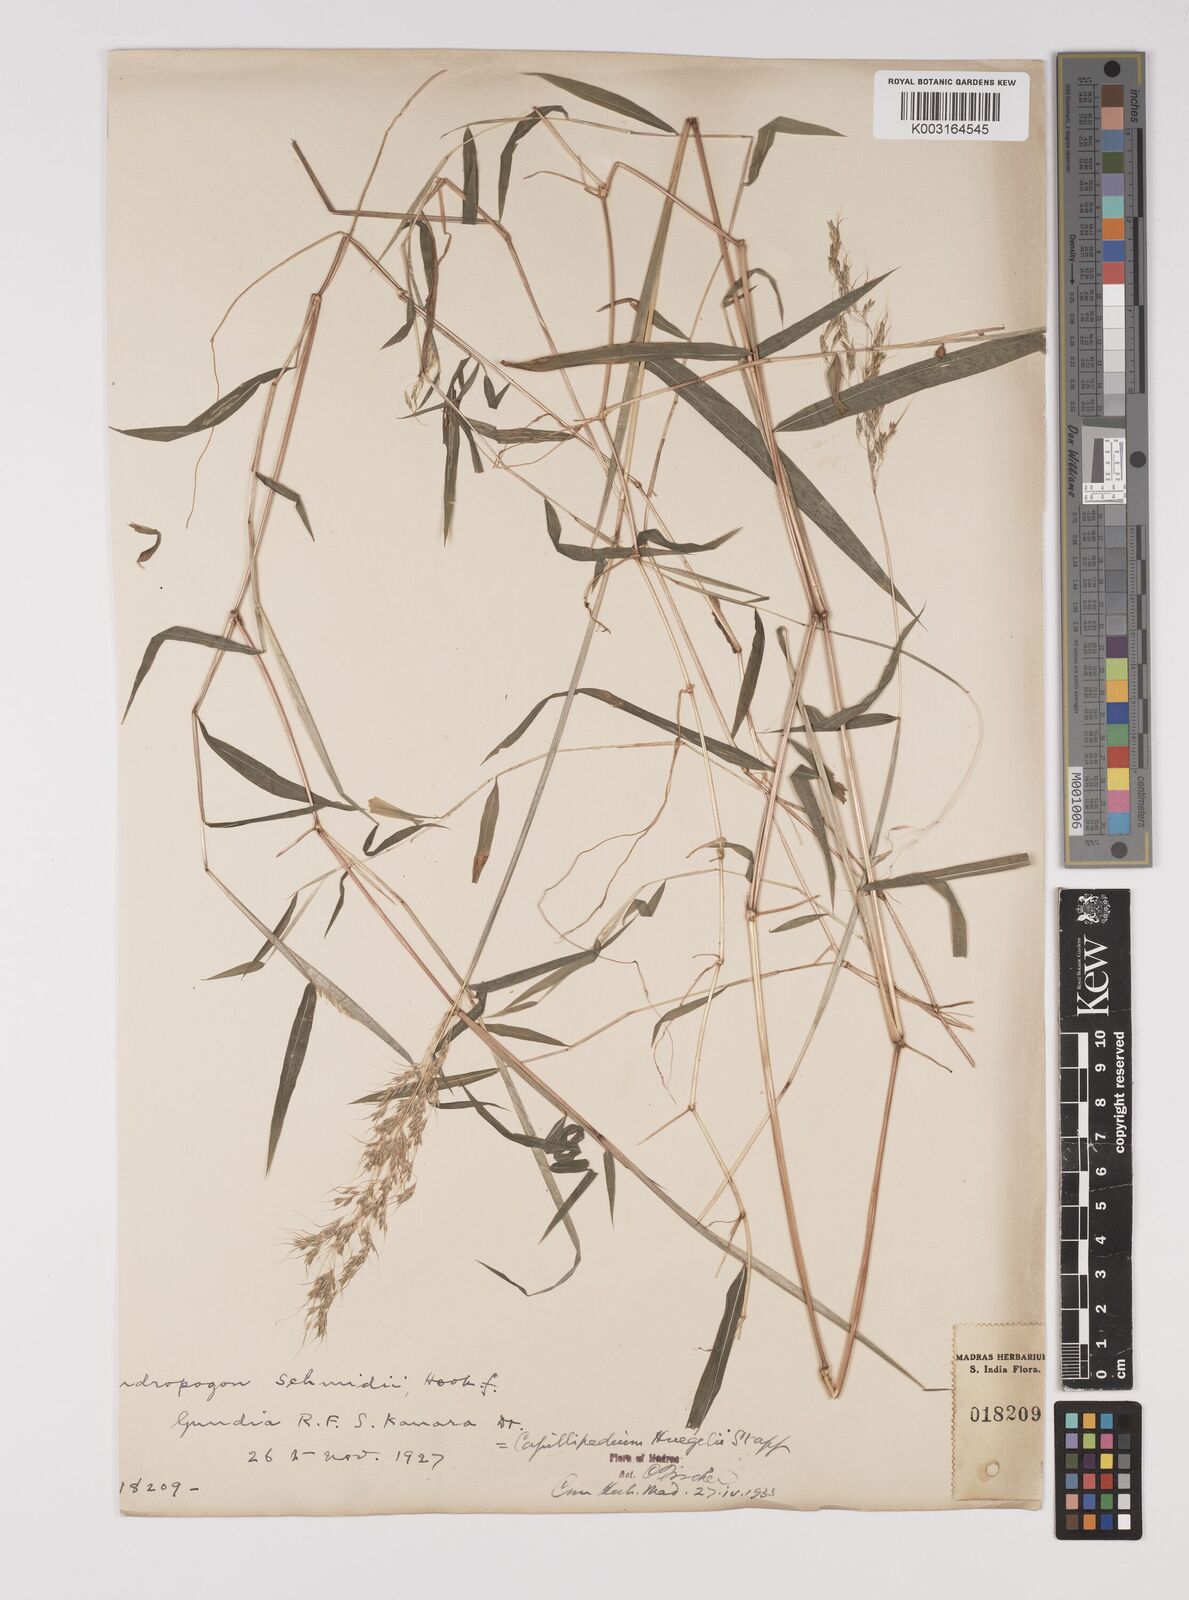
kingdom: Plantae
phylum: Tracheophyta
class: Liliopsida
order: Poales
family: Poaceae
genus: Capillipedium
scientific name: Capillipedium huegelii
